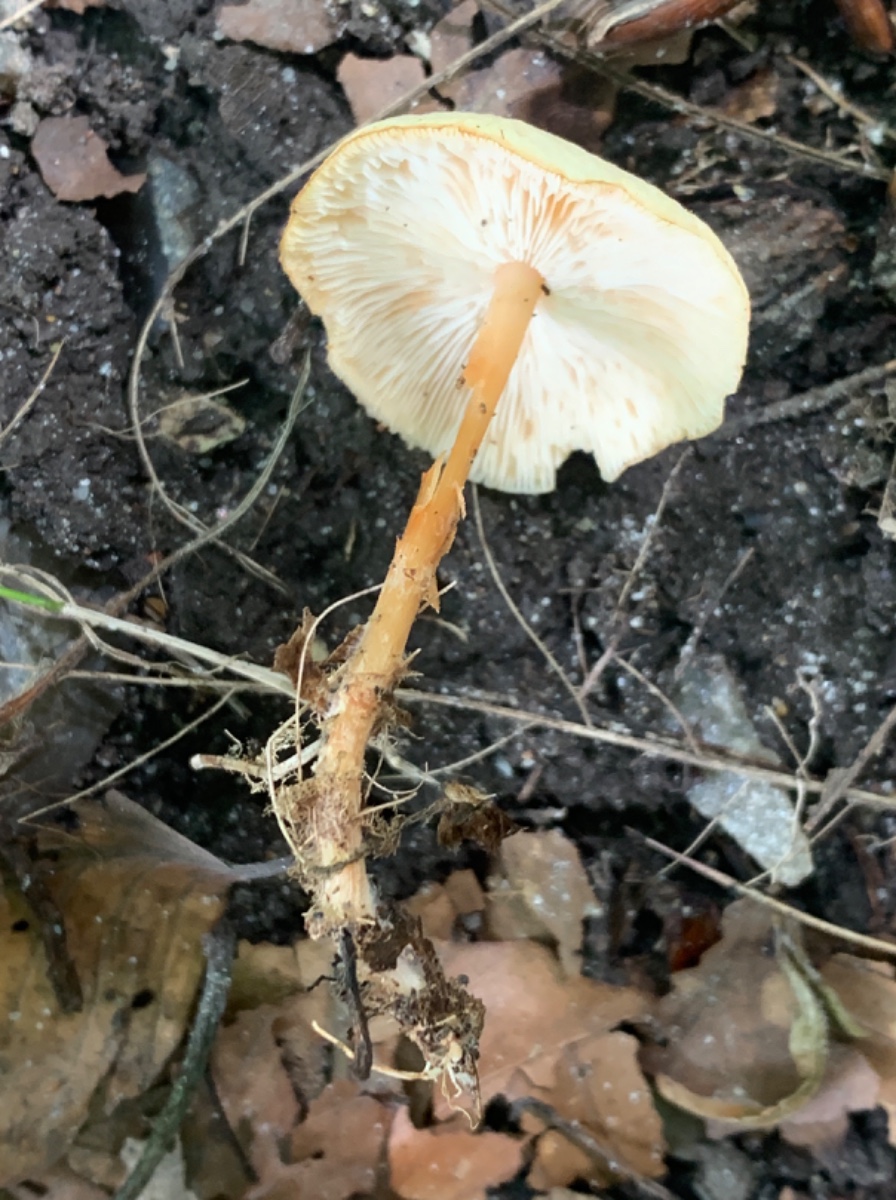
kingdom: Fungi
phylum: Basidiomycota
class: Agaricomycetes
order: Agaricales
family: Omphalotaceae
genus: Gymnopus
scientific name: Gymnopus dryophilus
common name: løv-fladhat
